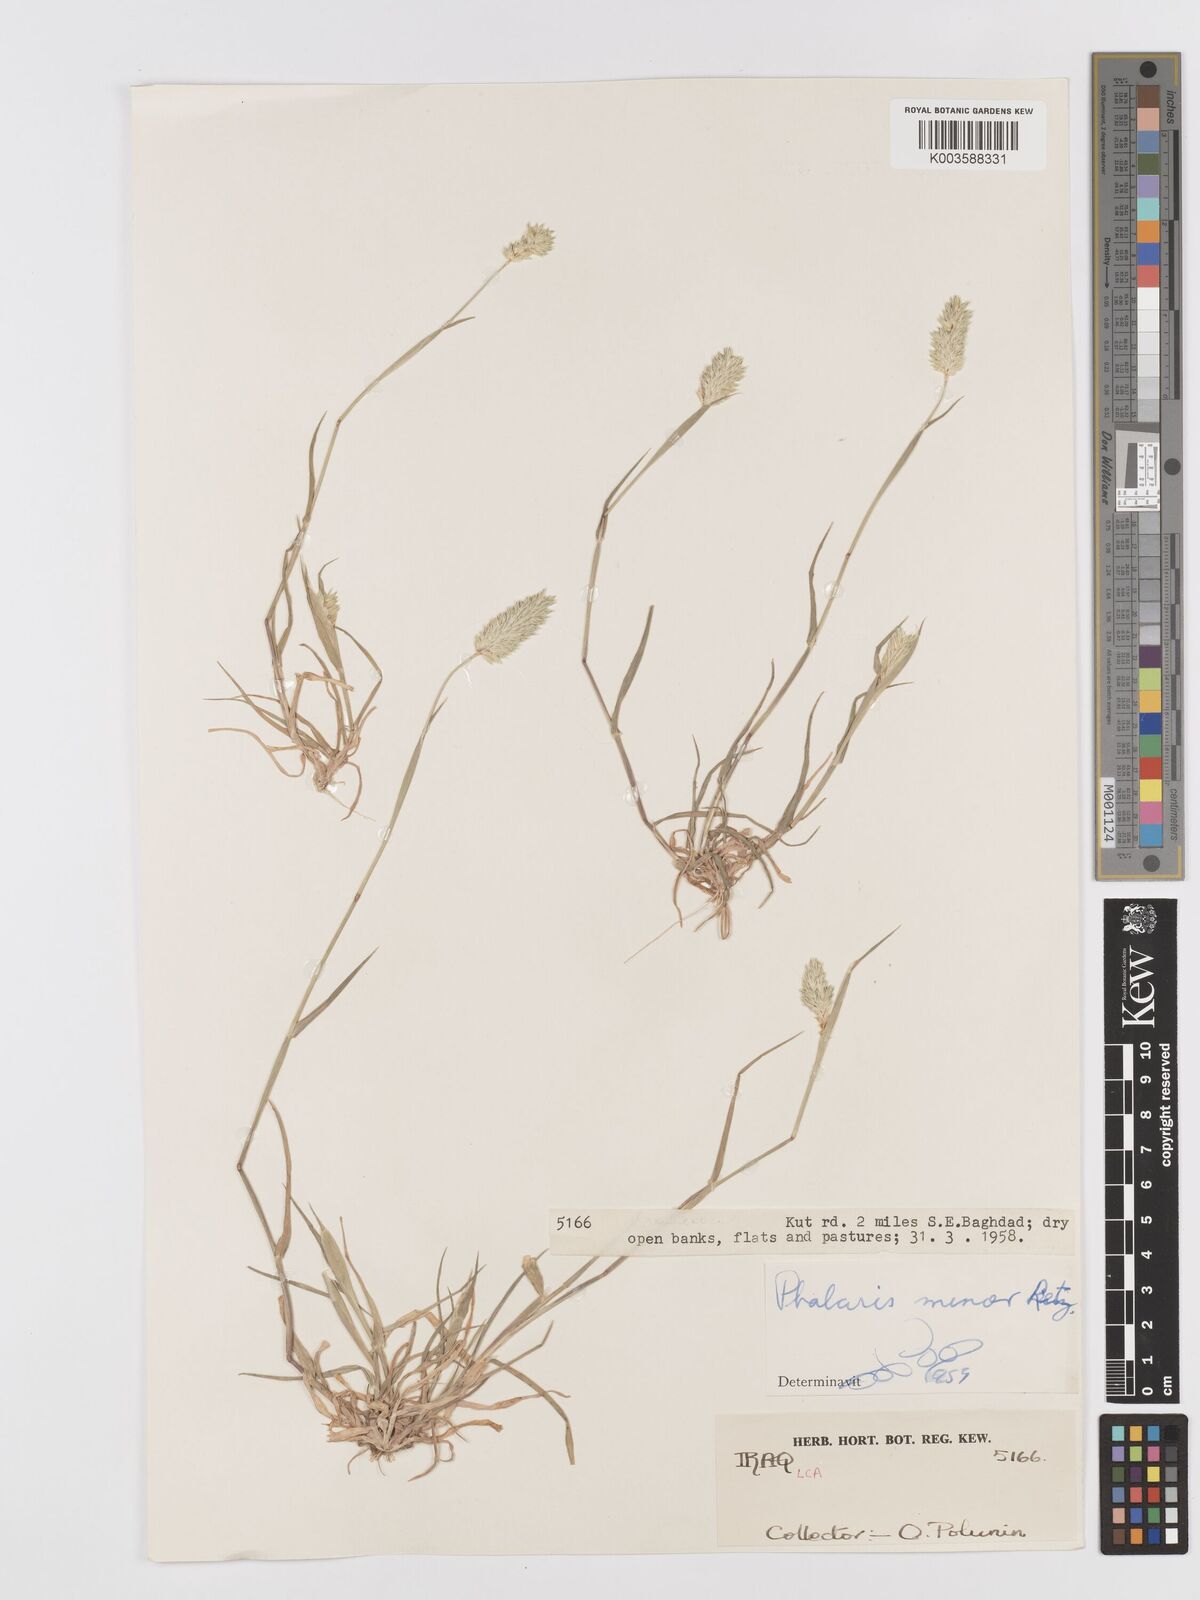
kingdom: Plantae
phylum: Tracheophyta
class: Liliopsida
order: Poales
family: Poaceae
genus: Phalaris
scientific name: Phalaris minor
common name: Littleseed canarygrass
